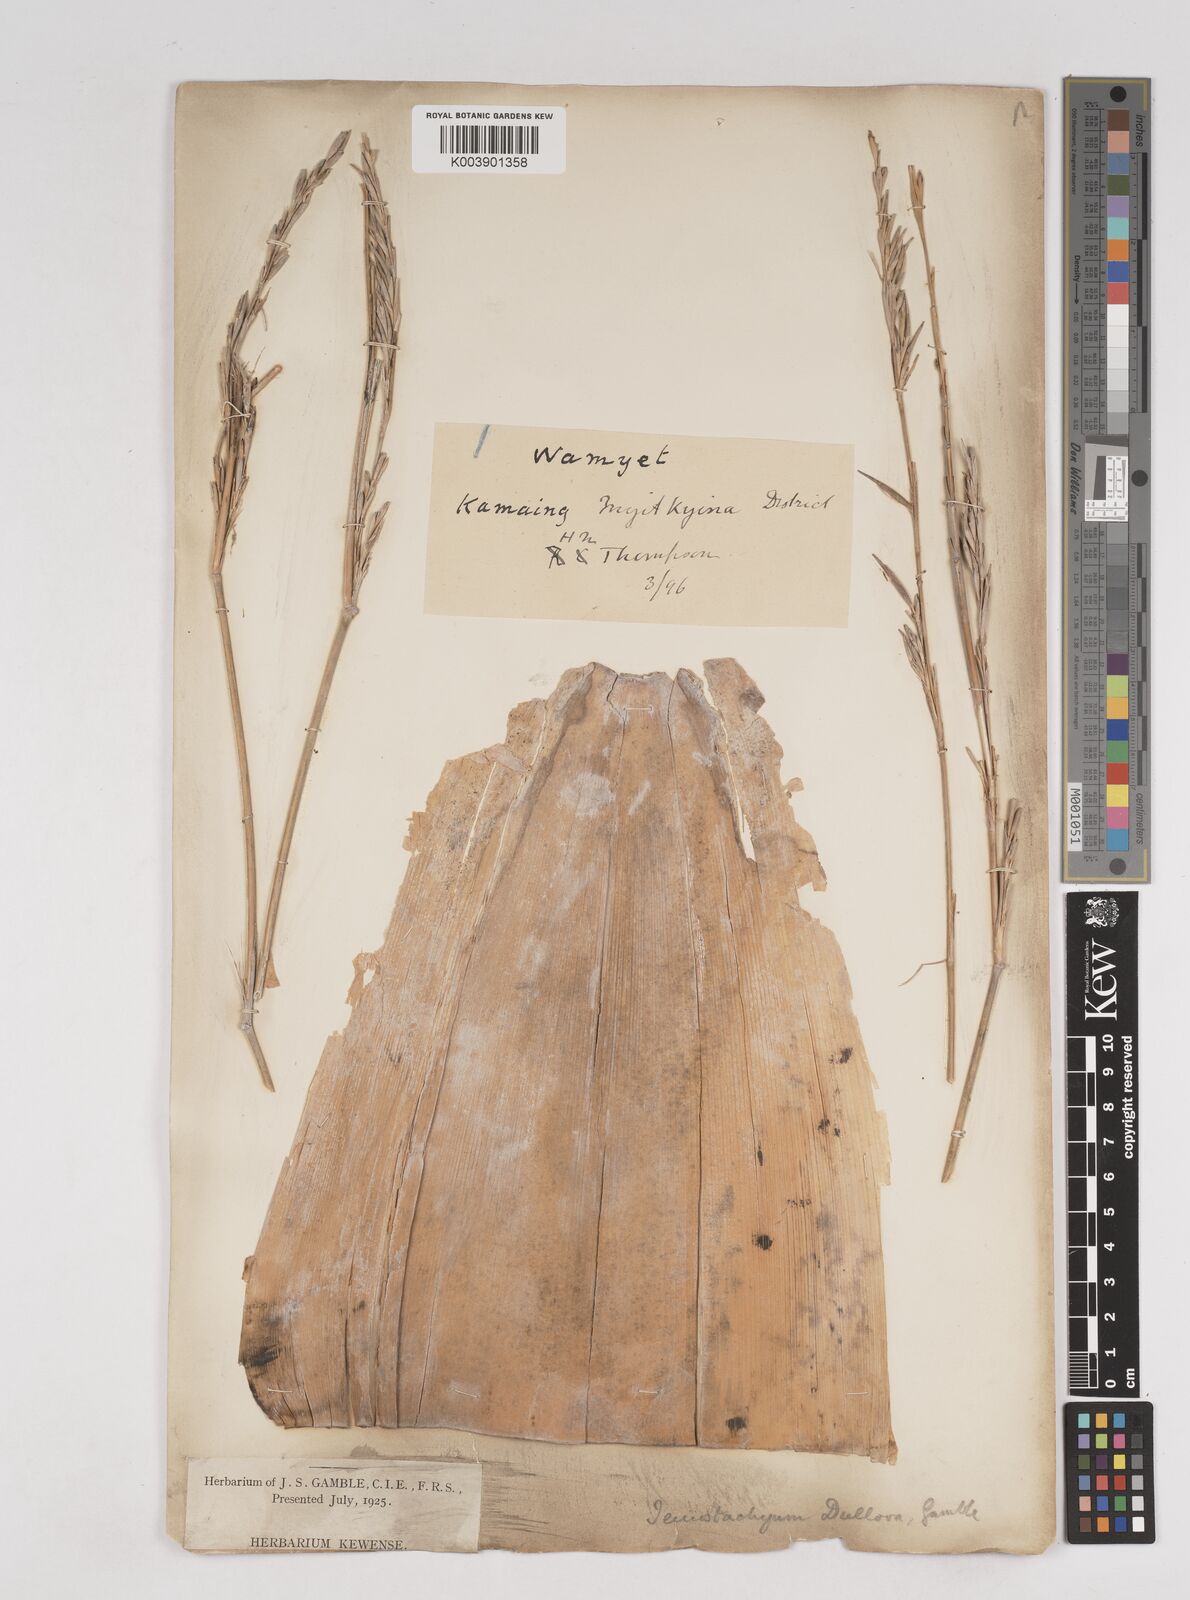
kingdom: Plantae
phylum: Tracheophyta
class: Liliopsida
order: Poales
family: Poaceae
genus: Schizostachyum
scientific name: Schizostachyum dullooa
